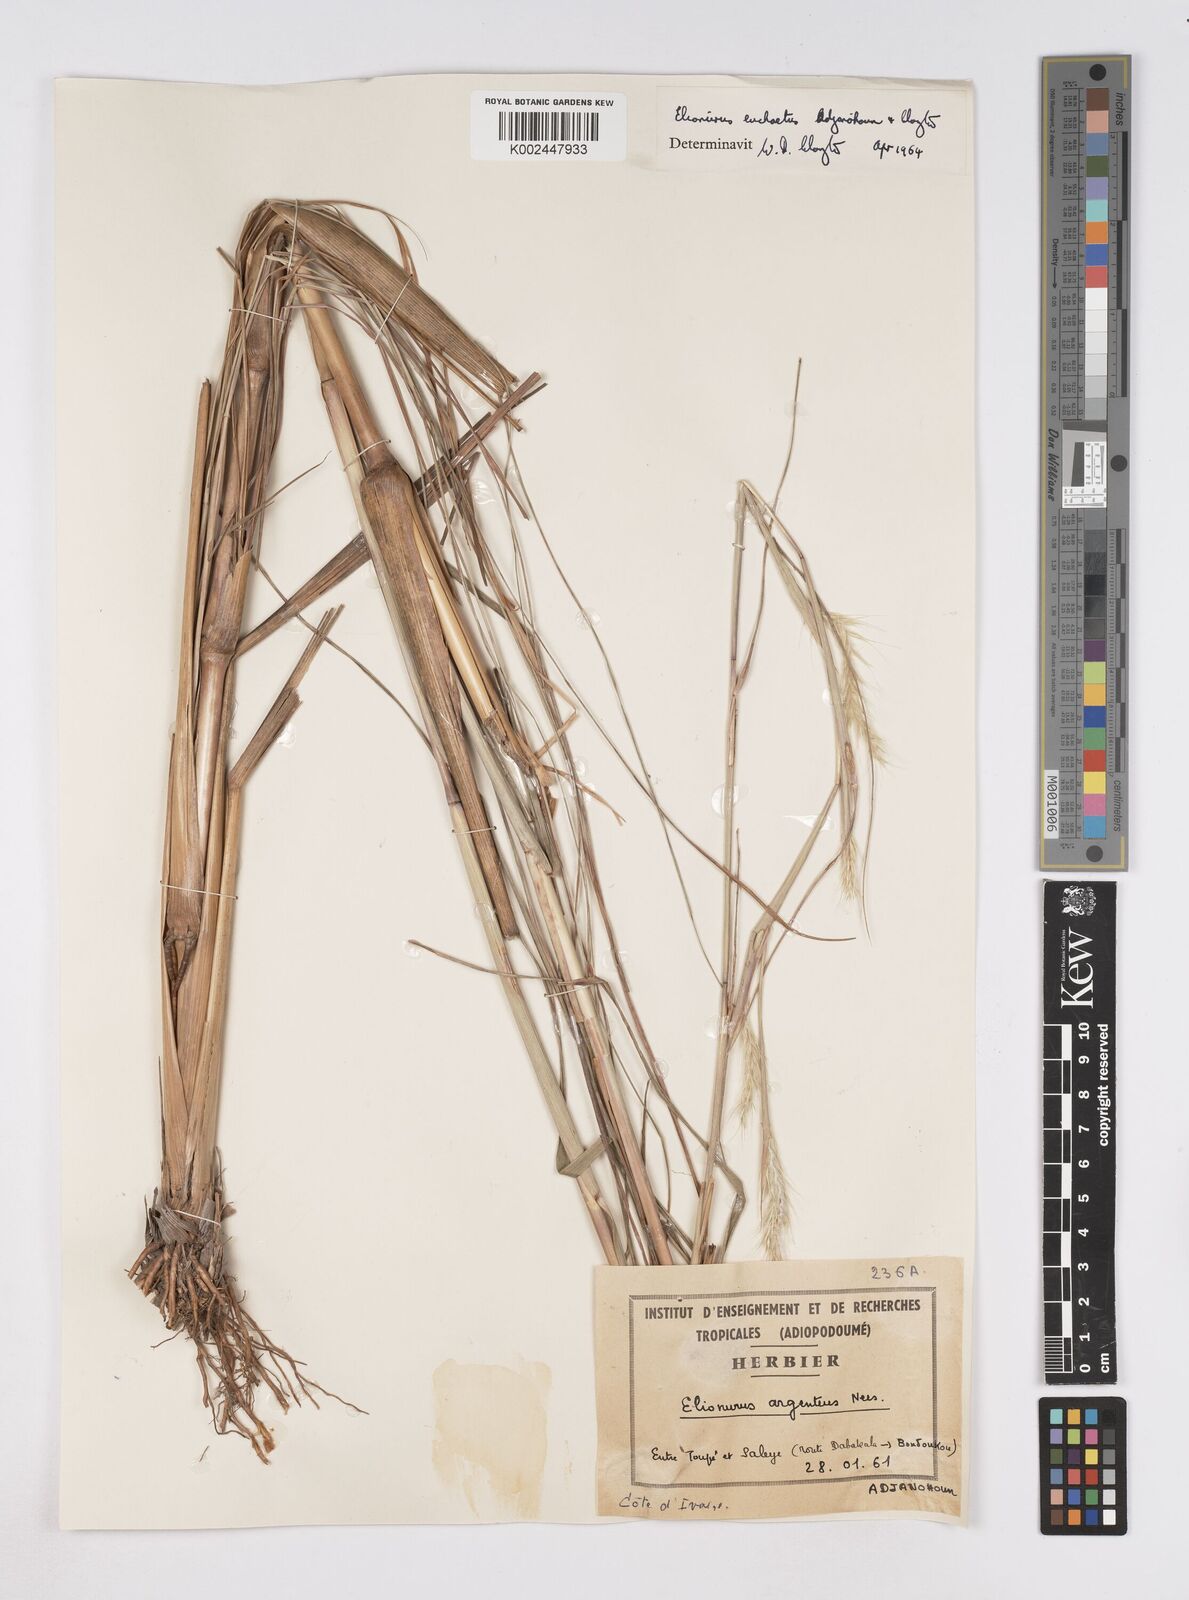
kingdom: Plantae
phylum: Tracheophyta
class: Liliopsida
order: Poales
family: Poaceae
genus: Elionurus
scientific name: Elionurus euchaetus
